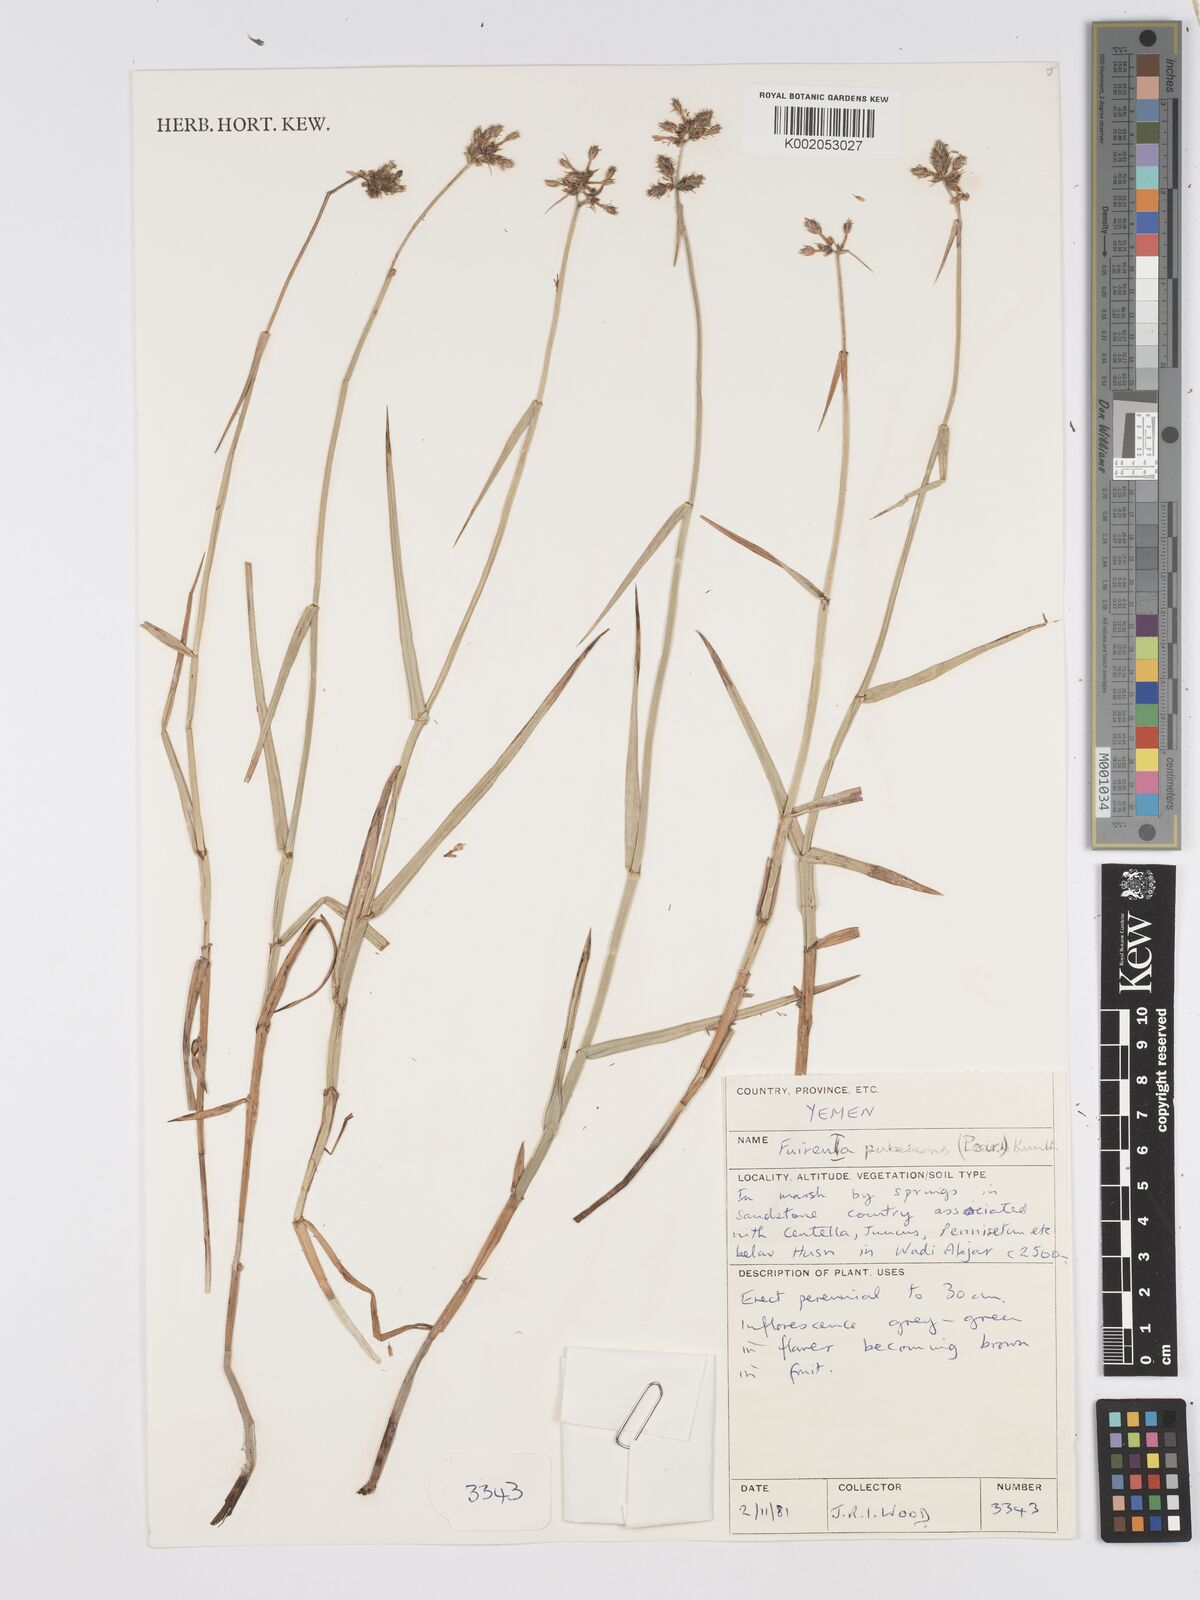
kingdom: Plantae
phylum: Tracheophyta
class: Liliopsida
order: Poales
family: Cyperaceae
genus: Fuirena
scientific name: Fuirena pubescens
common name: Hairy sedge
